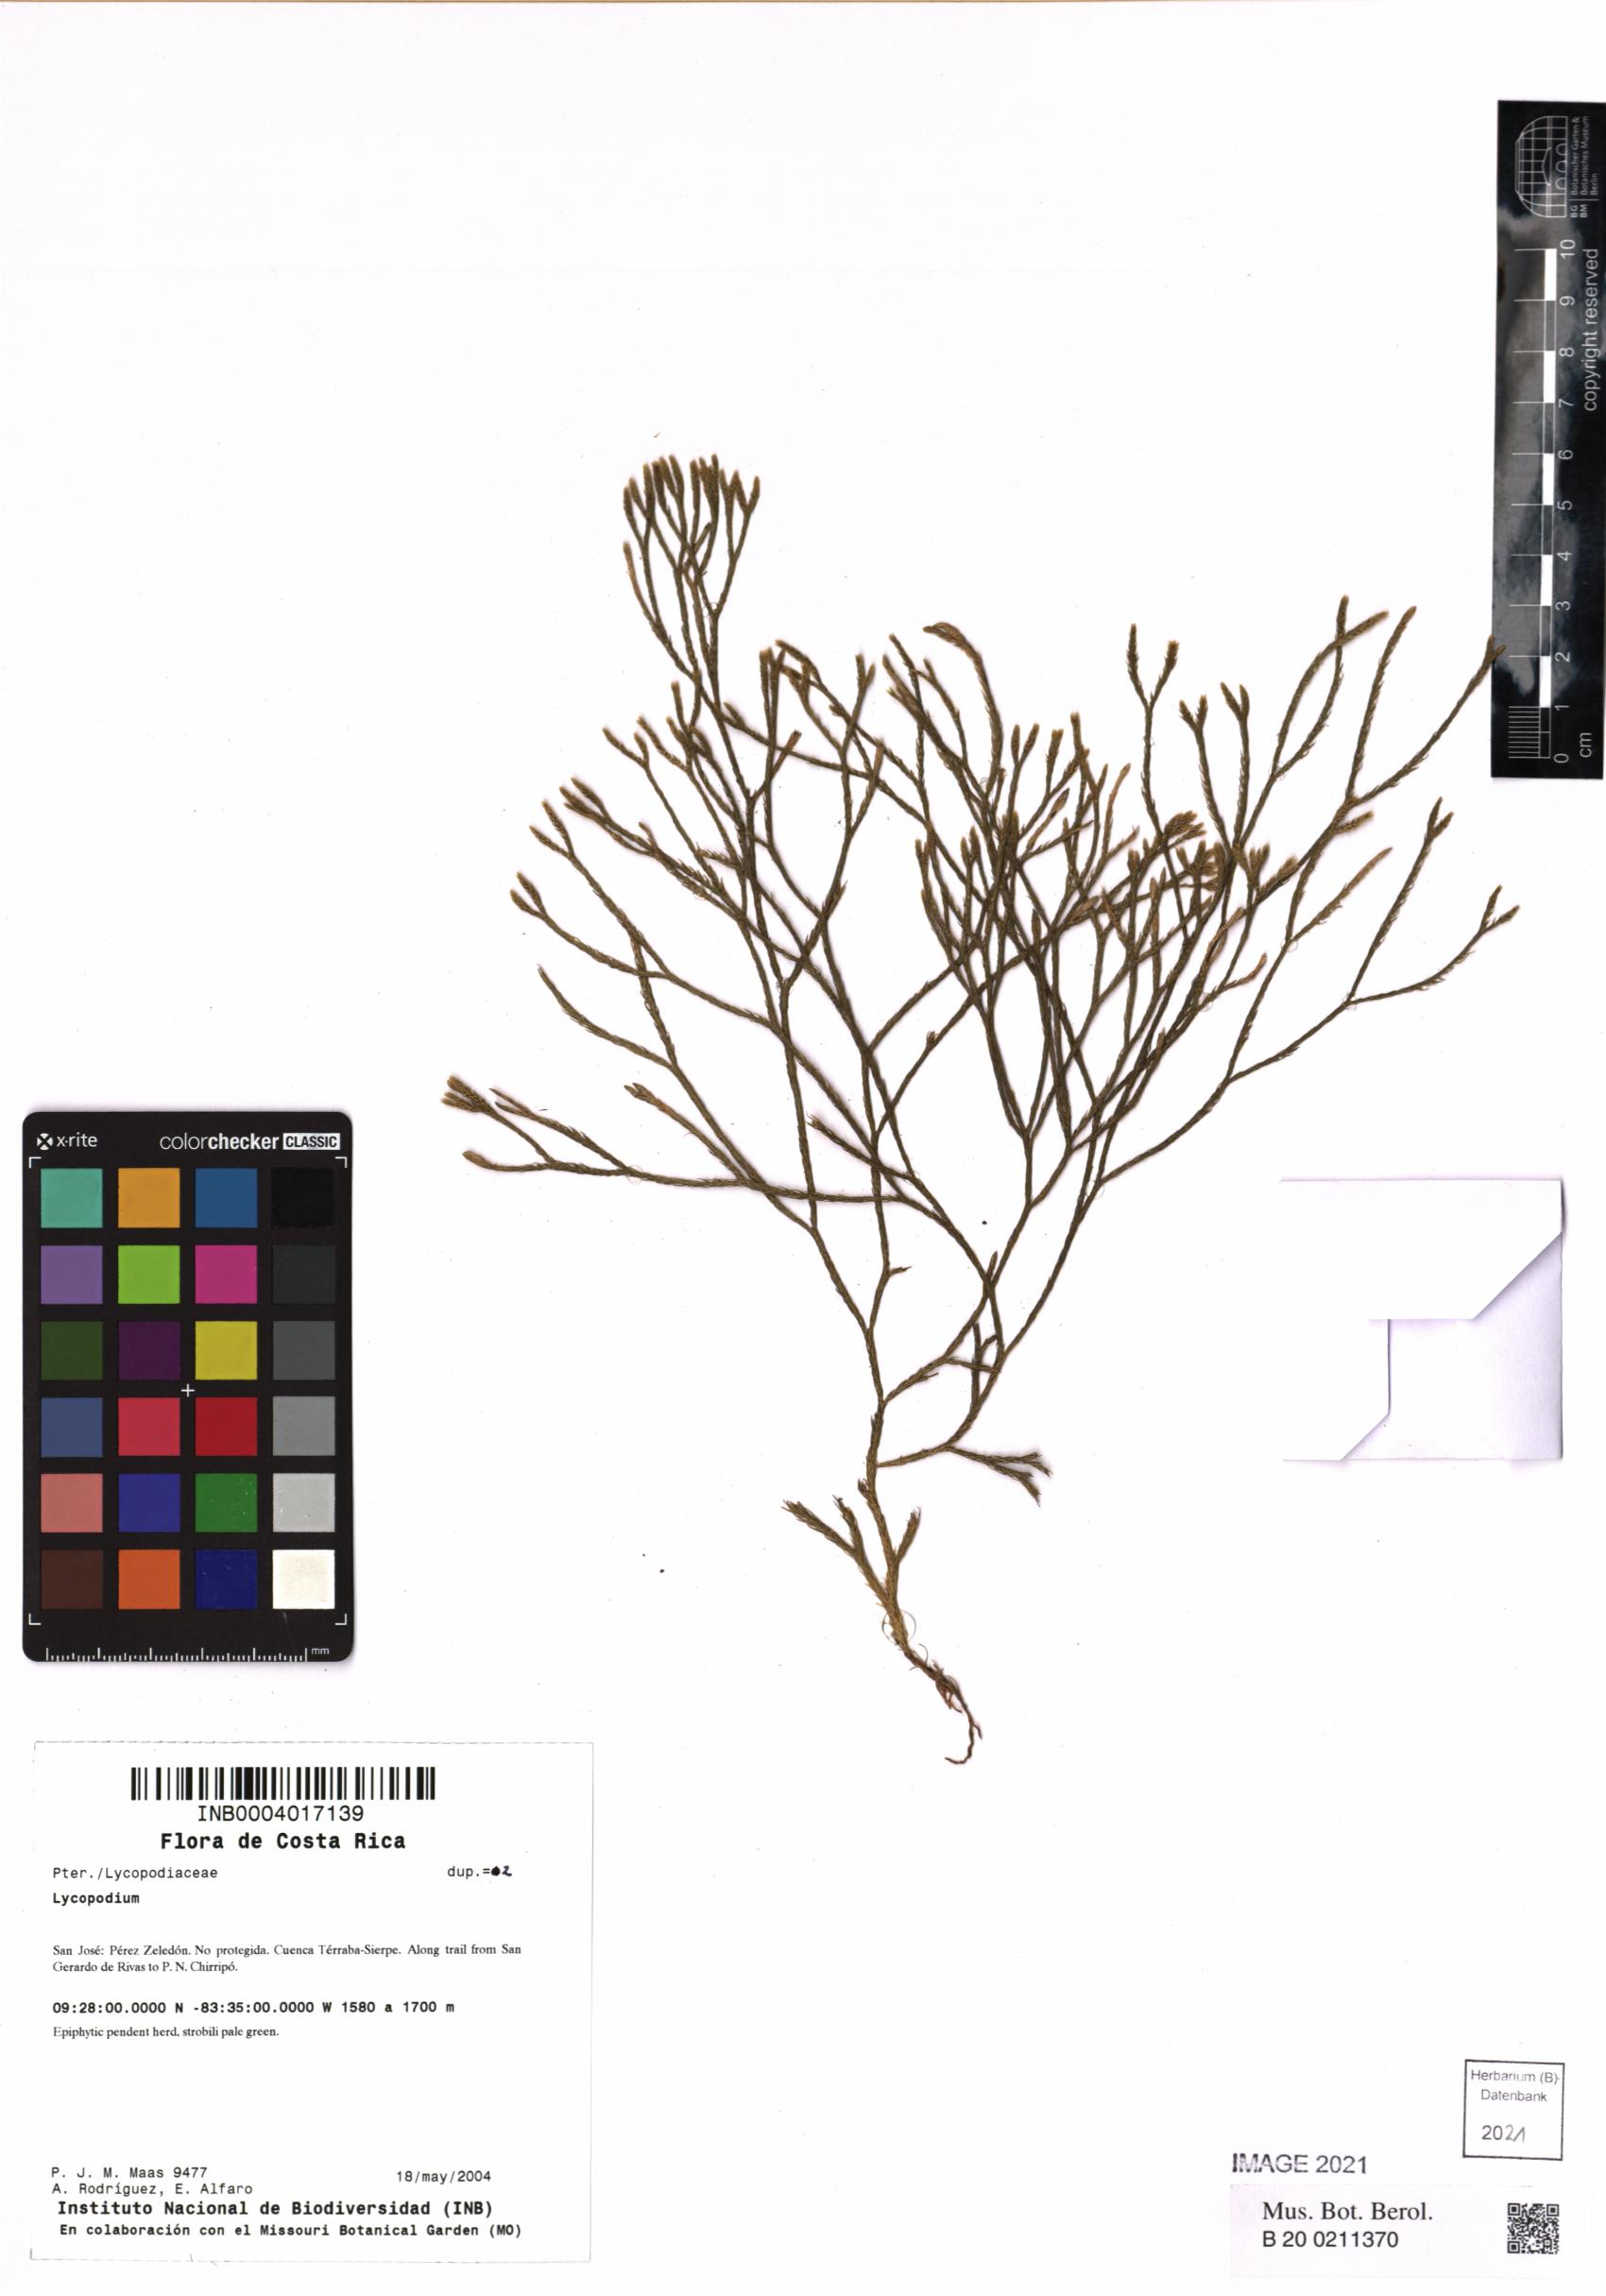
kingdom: Plantae
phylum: Tracheophyta
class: Lycopodiopsida
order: Lycopodiales
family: Lycopodiaceae
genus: Lycopodium
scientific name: Lycopodium
